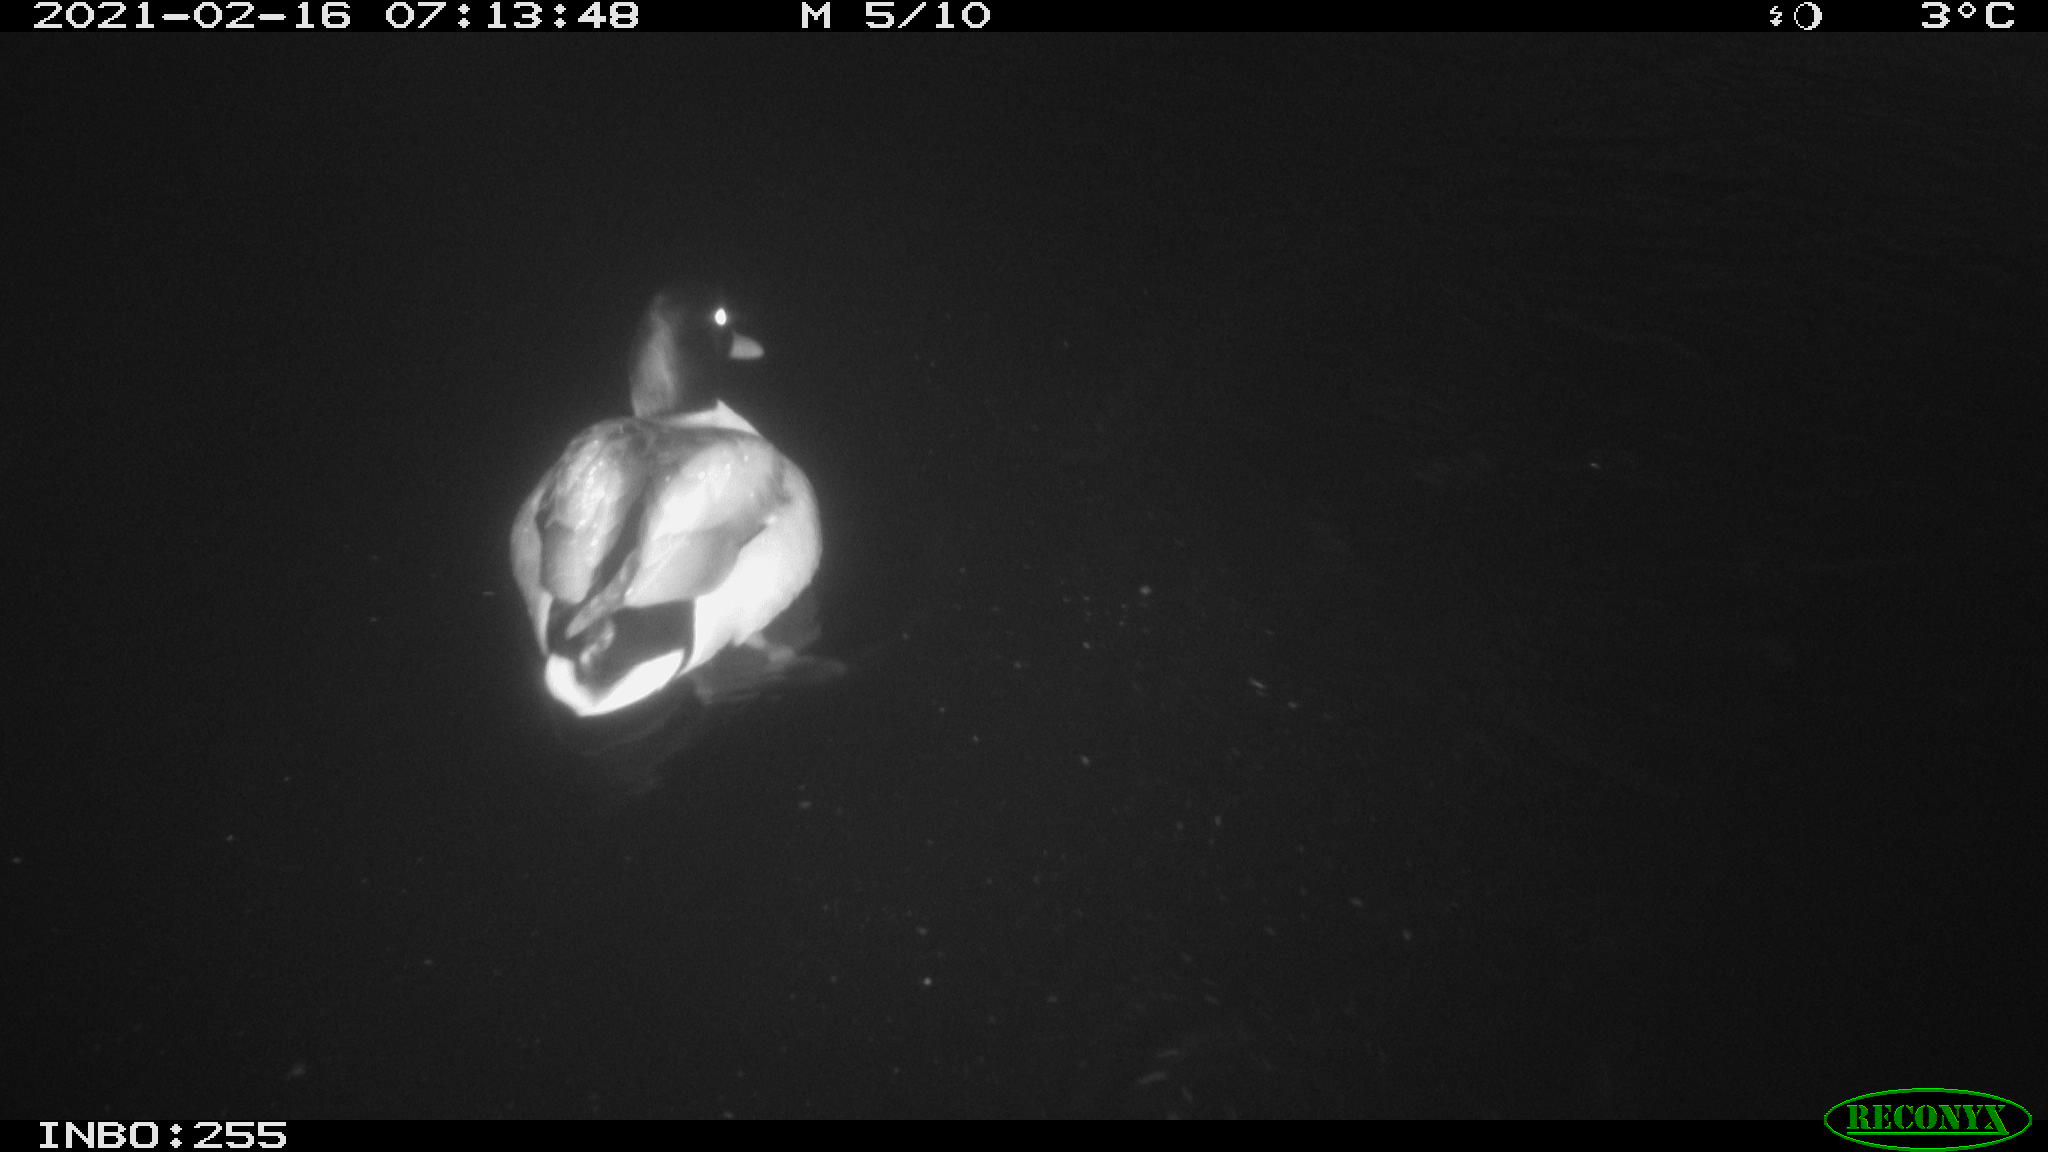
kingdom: Animalia
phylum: Chordata
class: Aves
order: Anseriformes
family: Anatidae
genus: Anas
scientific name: Anas platyrhynchos
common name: Mallard
